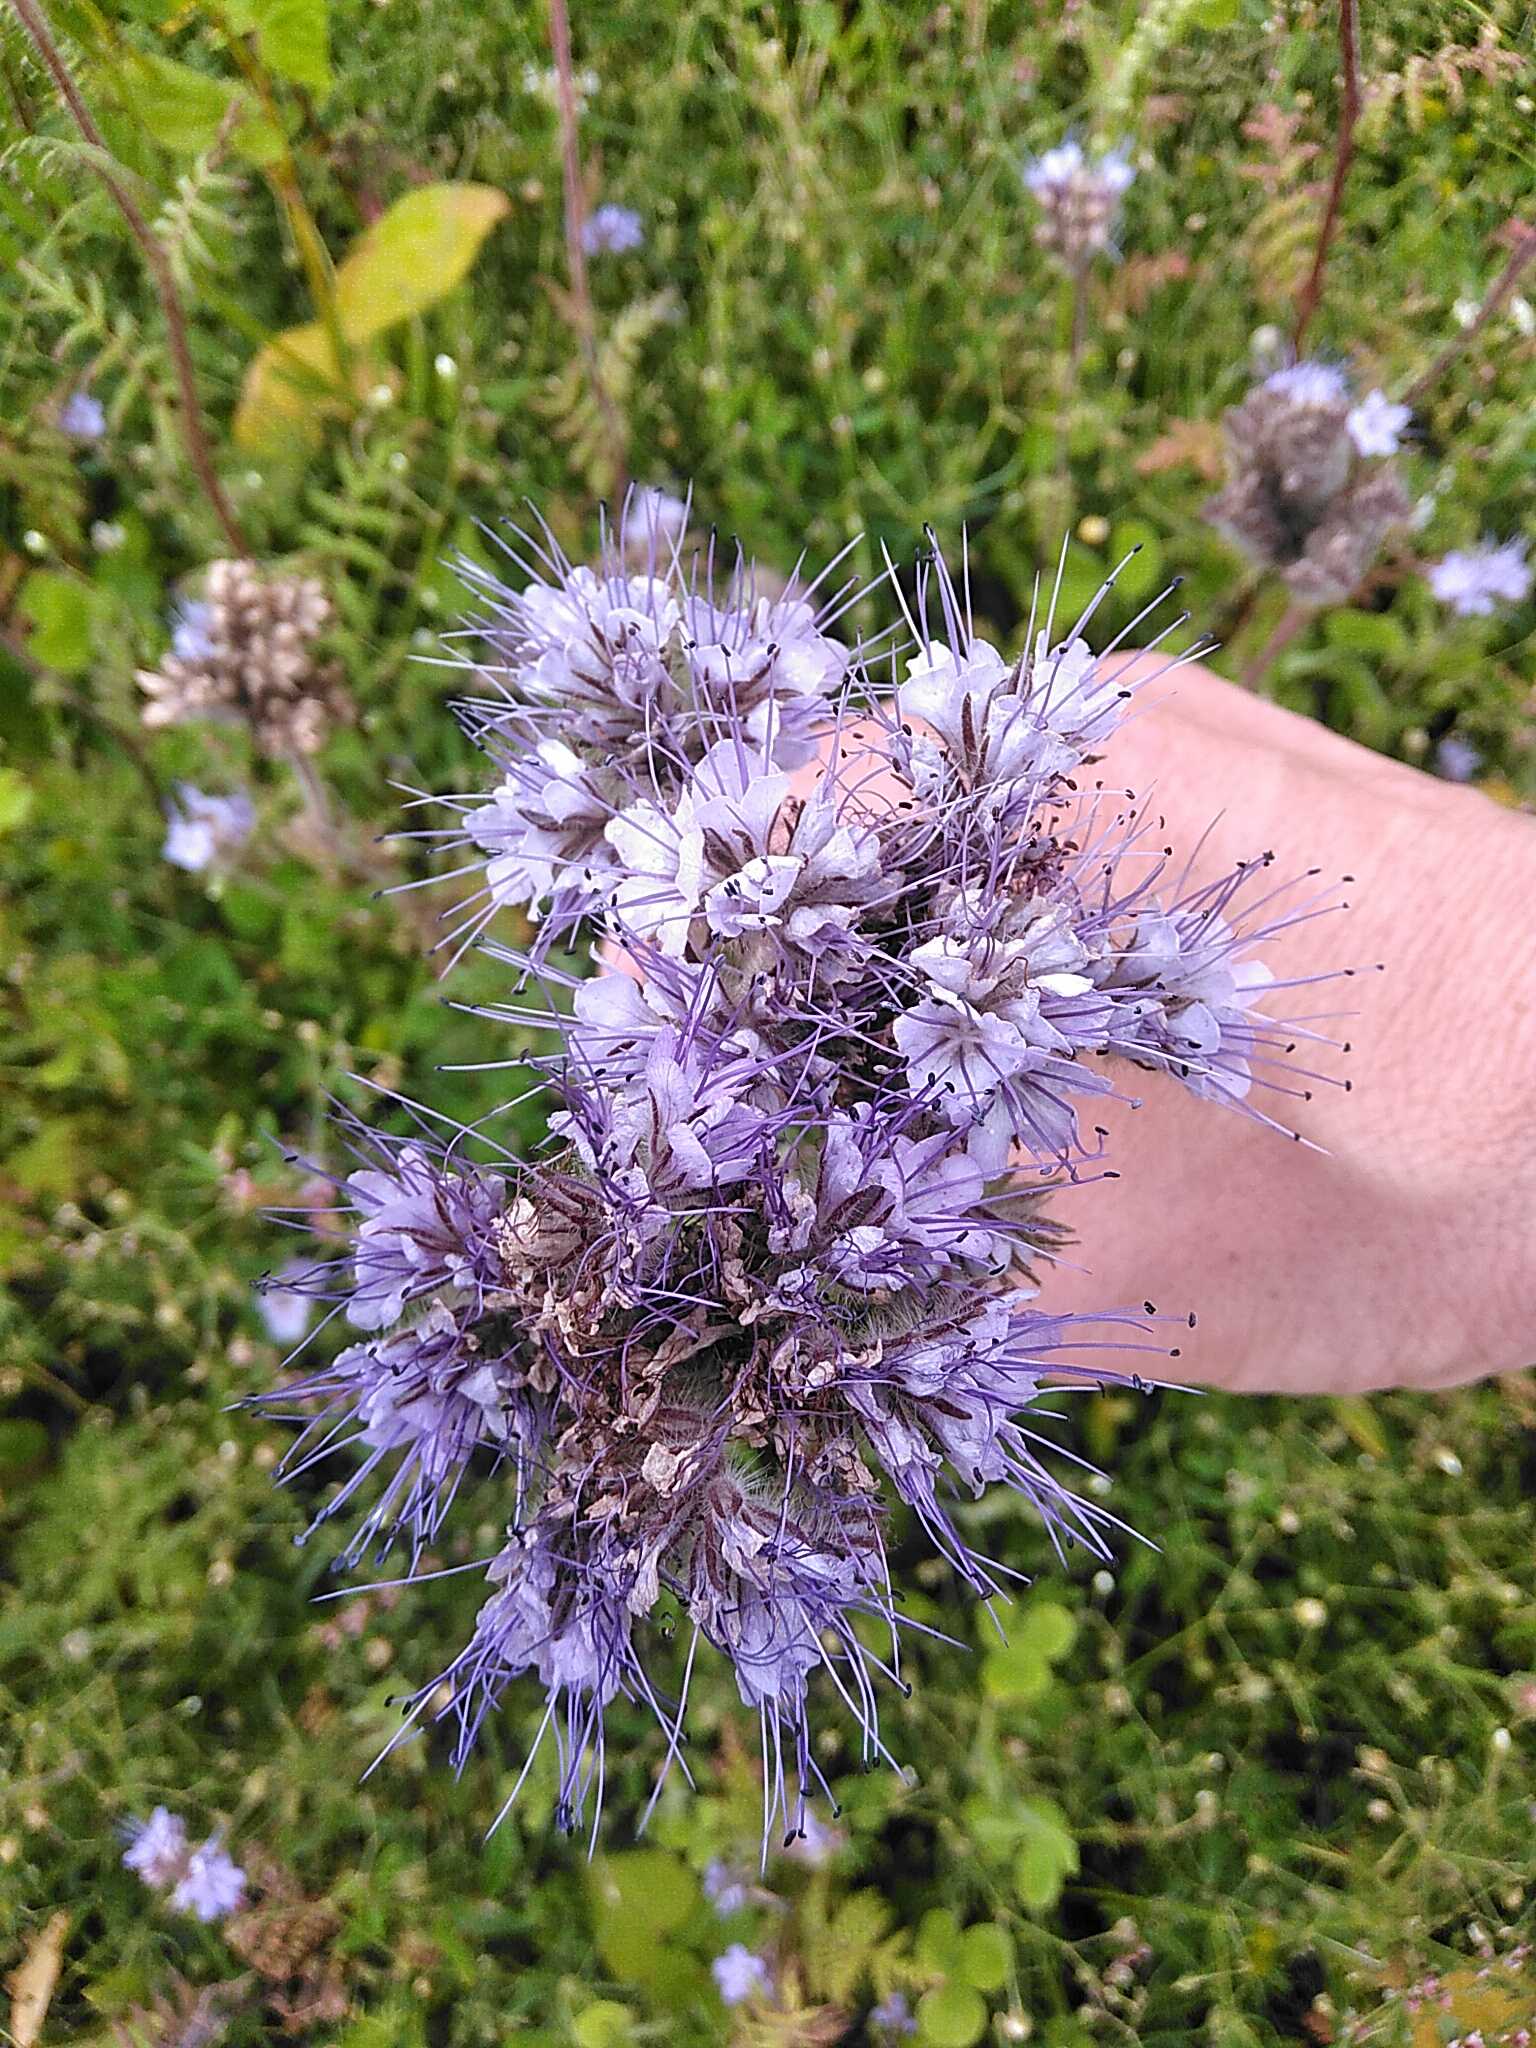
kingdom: Plantae
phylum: Tracheophyta
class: Magnoliopsida
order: Boraginales
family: Hydrophyllaceae
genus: Phacelia
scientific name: Phacelia tanacetifolia
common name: Honningurt
